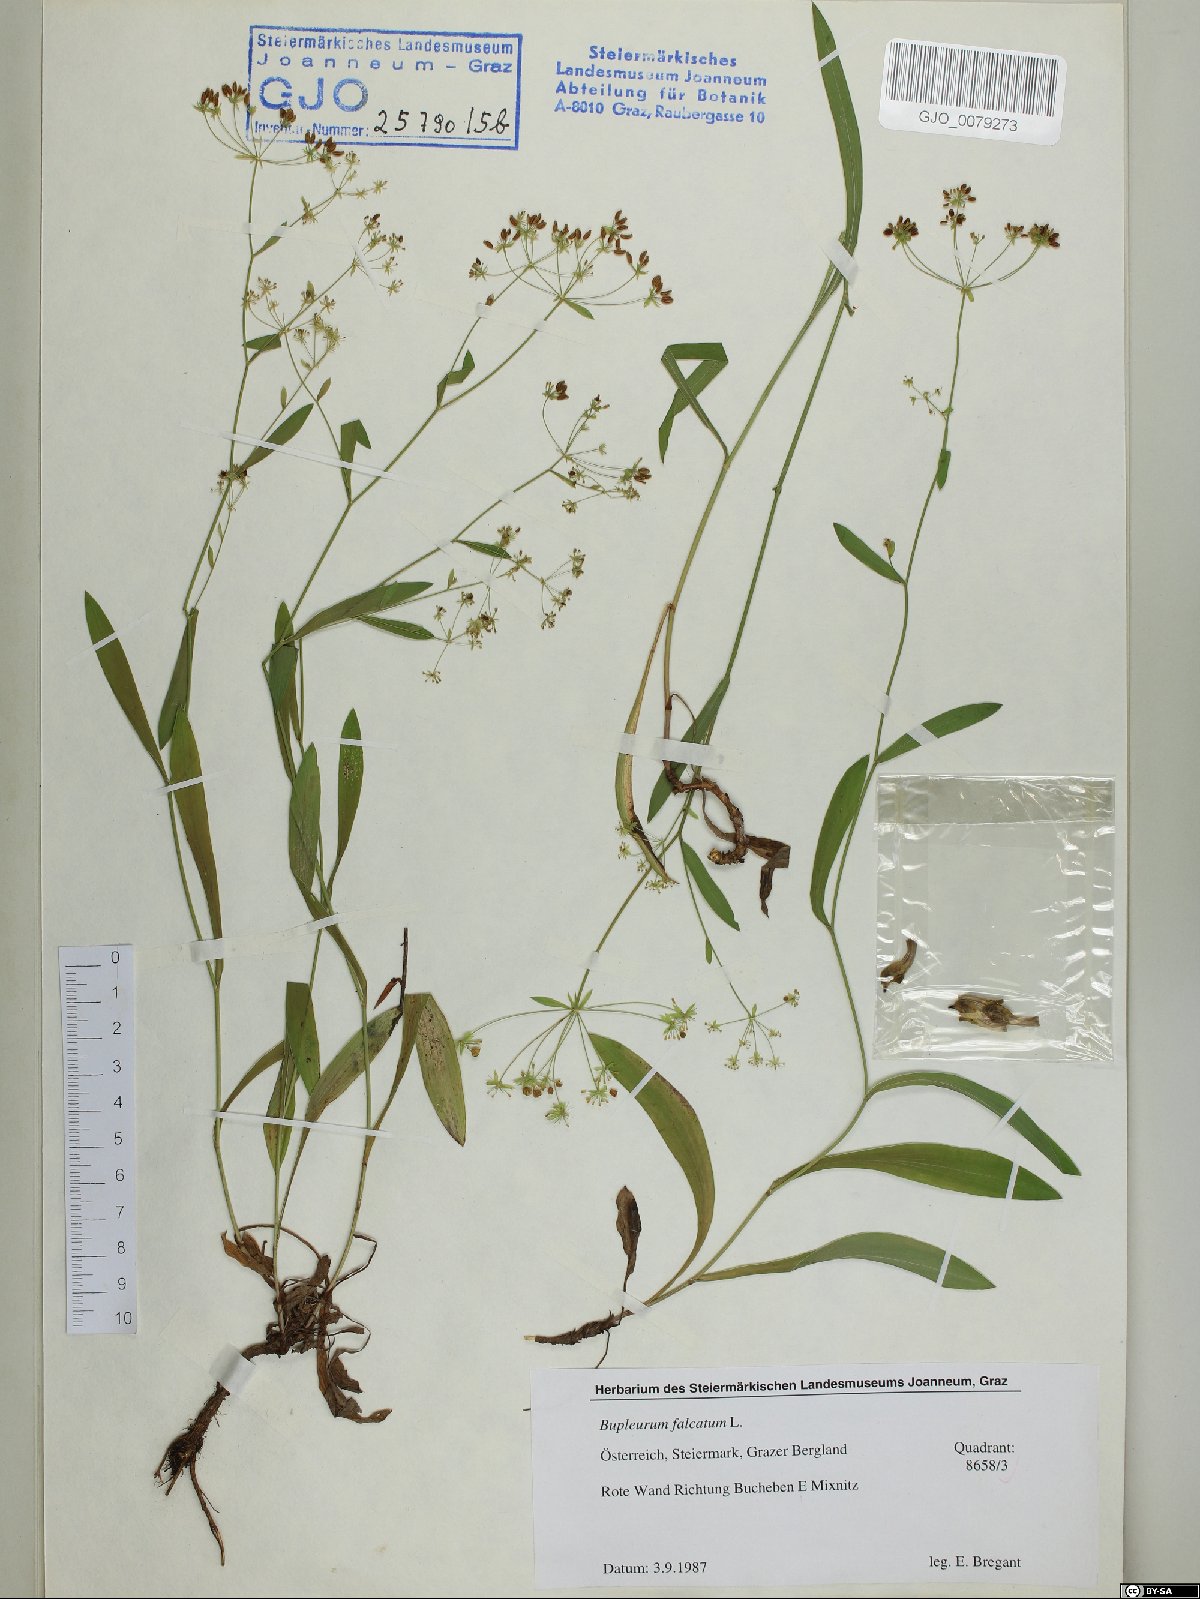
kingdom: Plantae
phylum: Tracheophyta
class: Magnoliopsida
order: Apiales
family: Apiaceae
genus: Bupleurum
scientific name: Bupleurum falcatum
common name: Sickle-leaved hare's-ear
